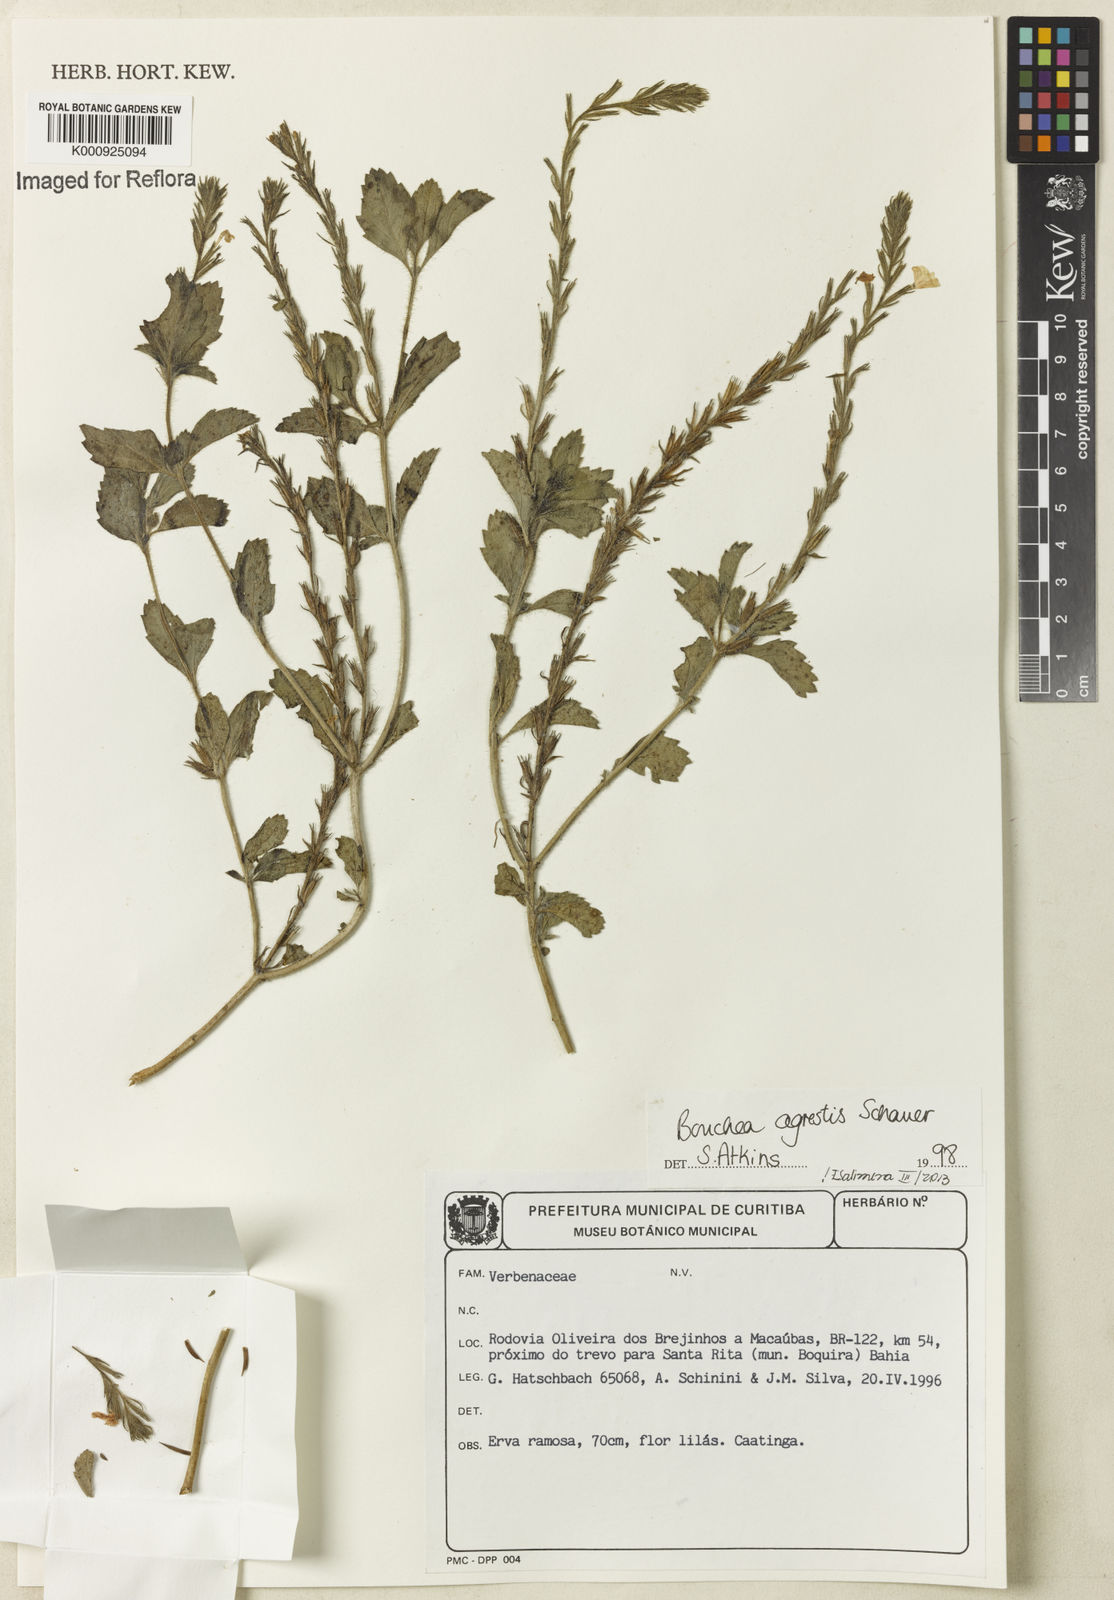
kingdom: Plantae
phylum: Tracheophyta
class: Magnoliopsida
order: Lamiales
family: Verbenaceae
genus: Bouchea
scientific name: Bouchea agrestis
